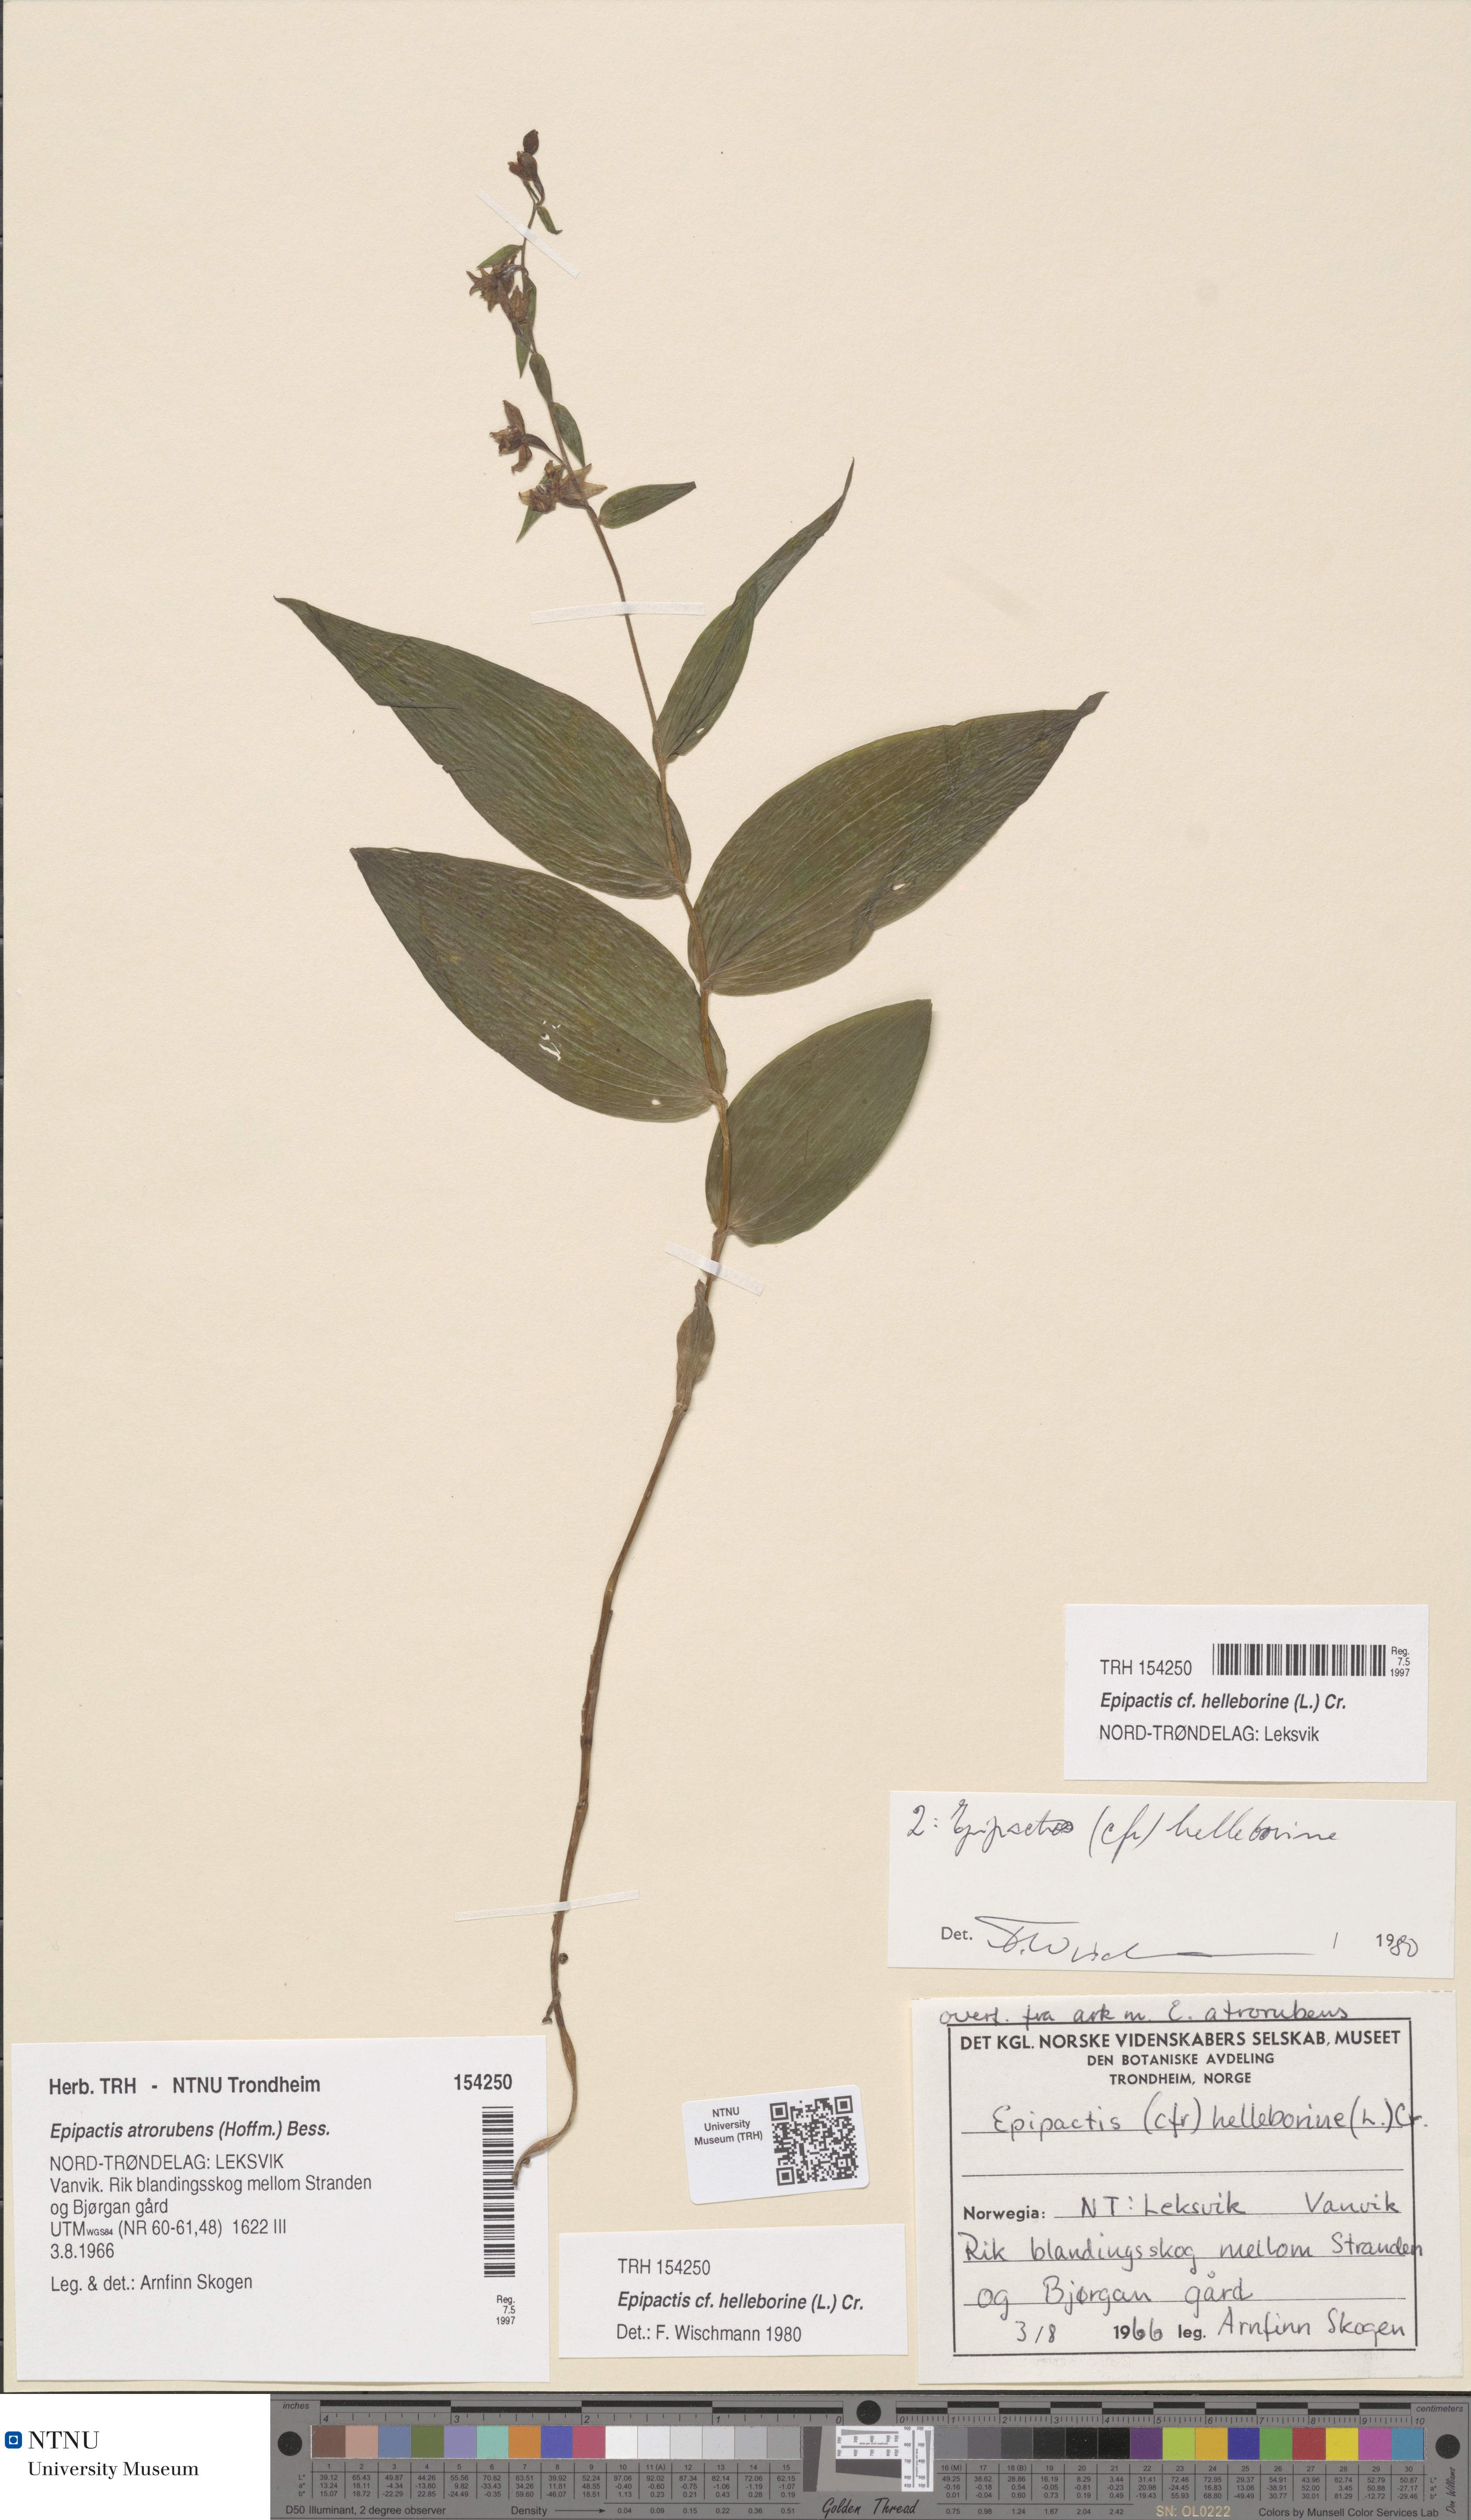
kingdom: Plantae
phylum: Tracheophyta
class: Liliopsida
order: Asparagales
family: Orchidaceae
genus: Epipactis
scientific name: Epipactis helleborine
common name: Broad-leaved helleborine
